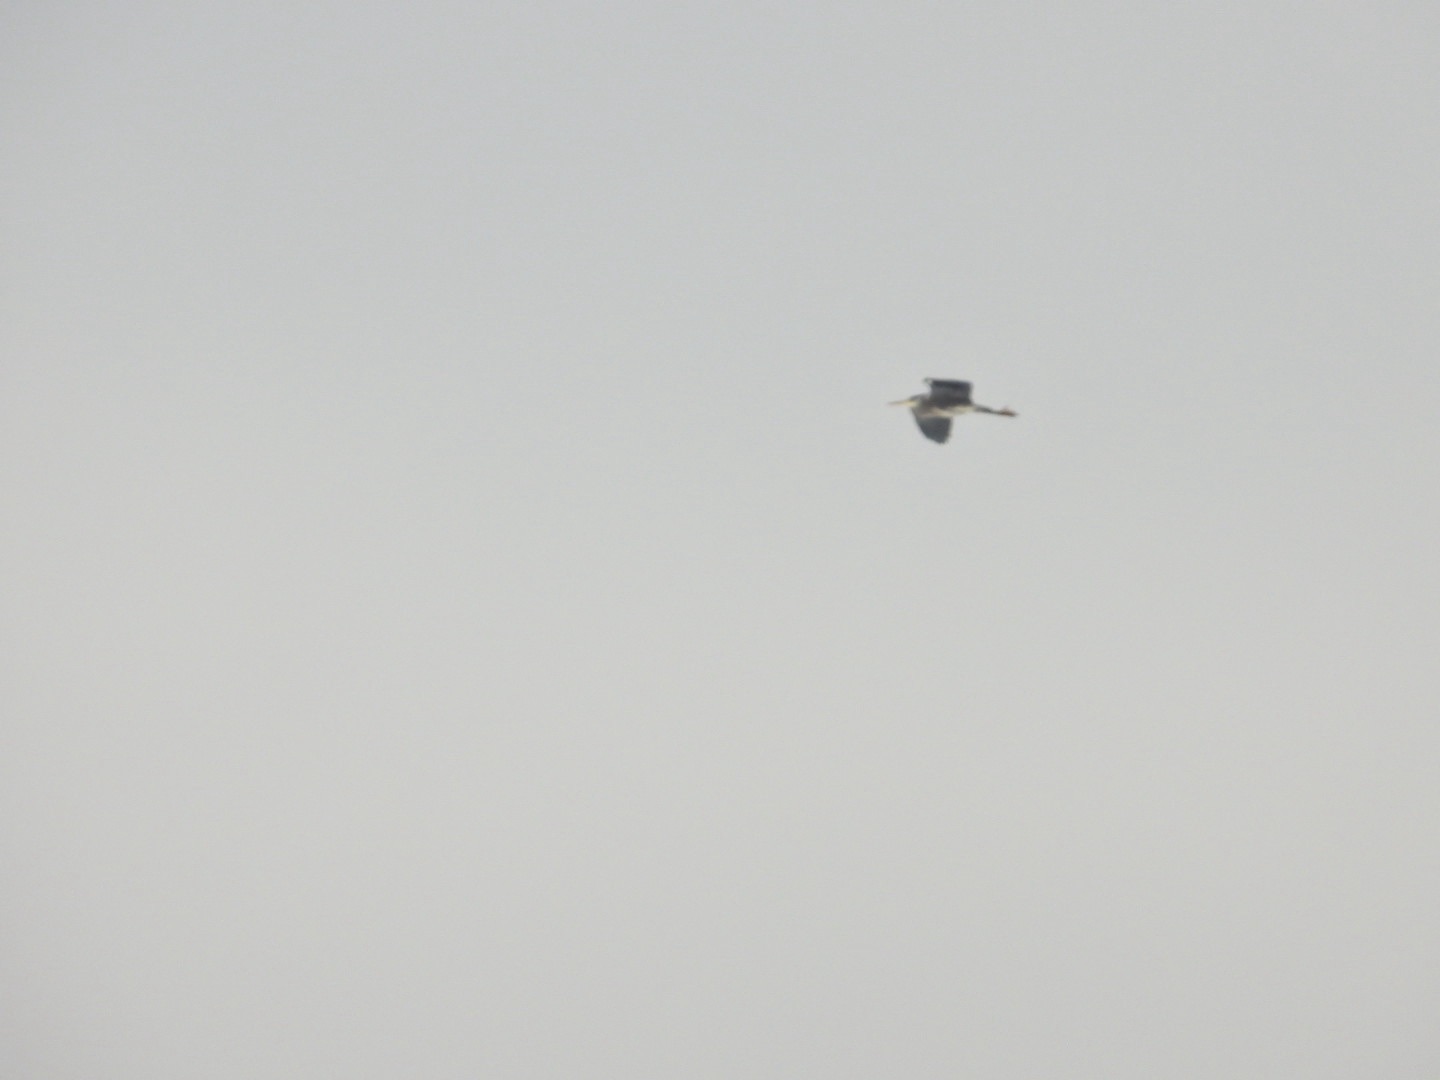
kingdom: Animalia
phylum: Chordata
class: Aves
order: Pelecaniformes
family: Ardeidae
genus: Ardea
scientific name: Ardea cinerea
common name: Fiskehejre
